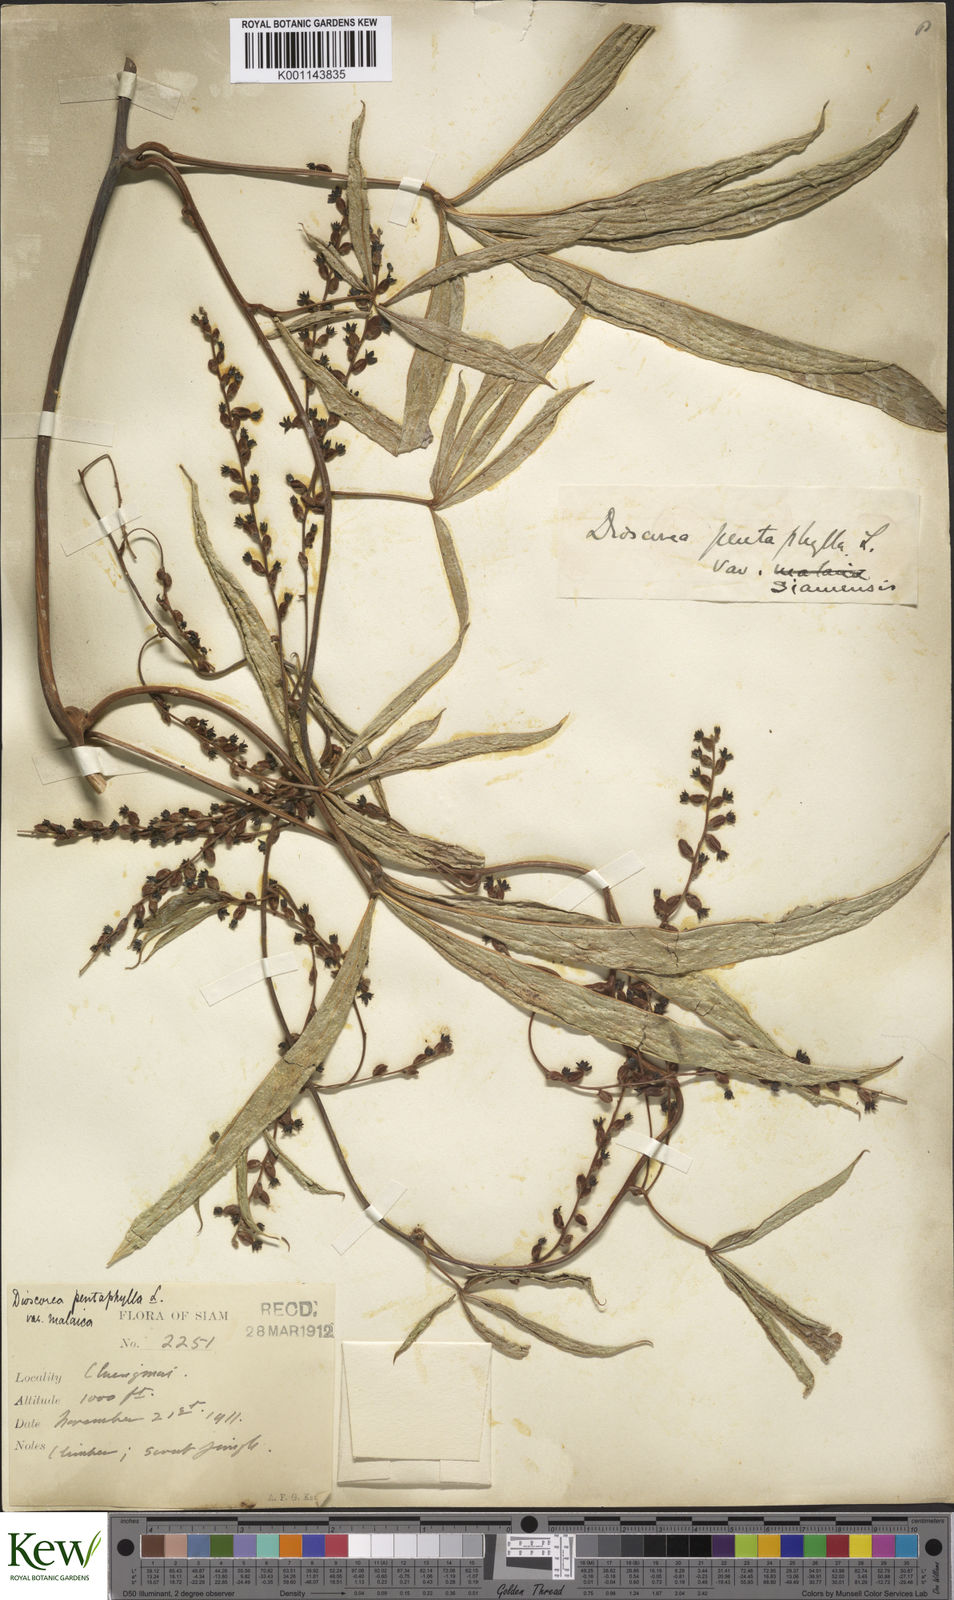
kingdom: Plantae
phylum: Tracheophyta
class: Liliopsida
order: Dioscoreales
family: Dioscoreaceae
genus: Dioscorea
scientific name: Dioscorea pentaphylla
